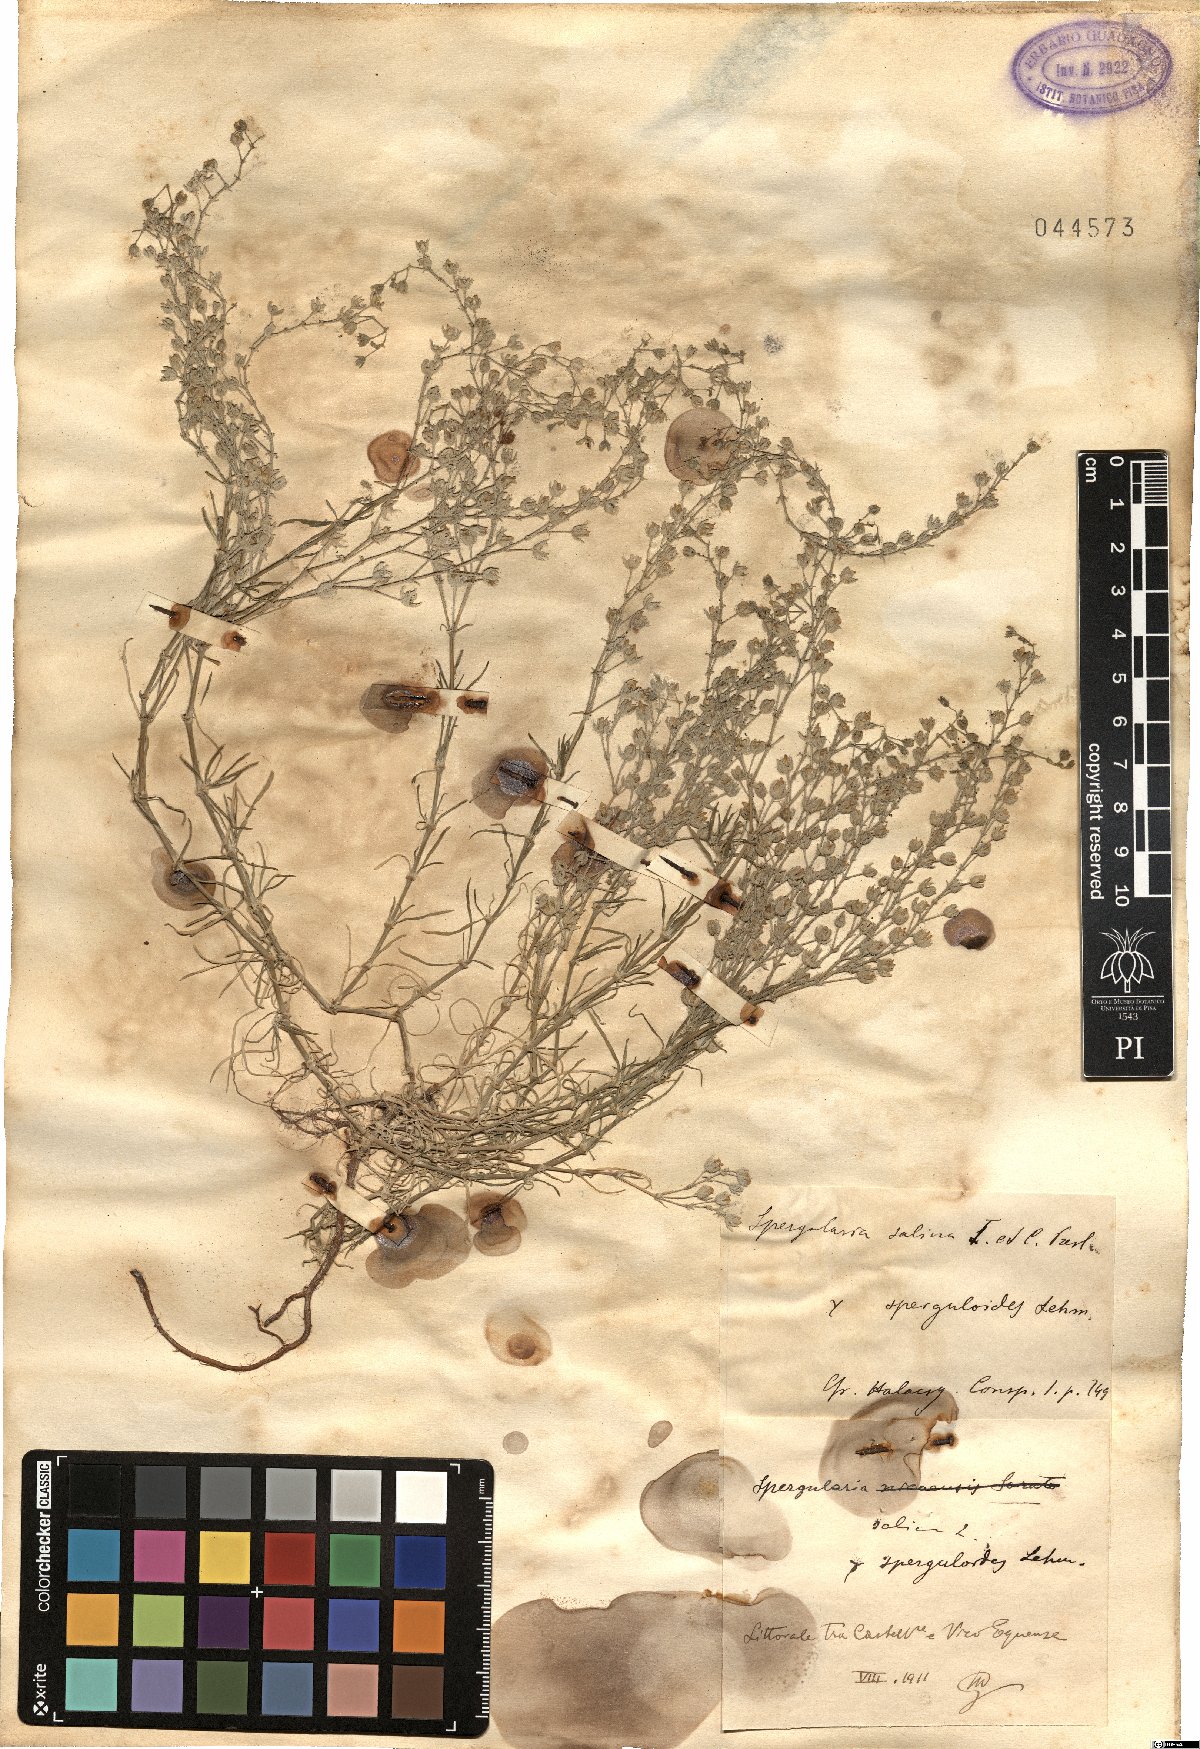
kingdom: Plantae
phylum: Tracheophyta
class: Magnoliopsida
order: Caryophyllales
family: Caryophyllaceae
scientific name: Caryophyllaceae
